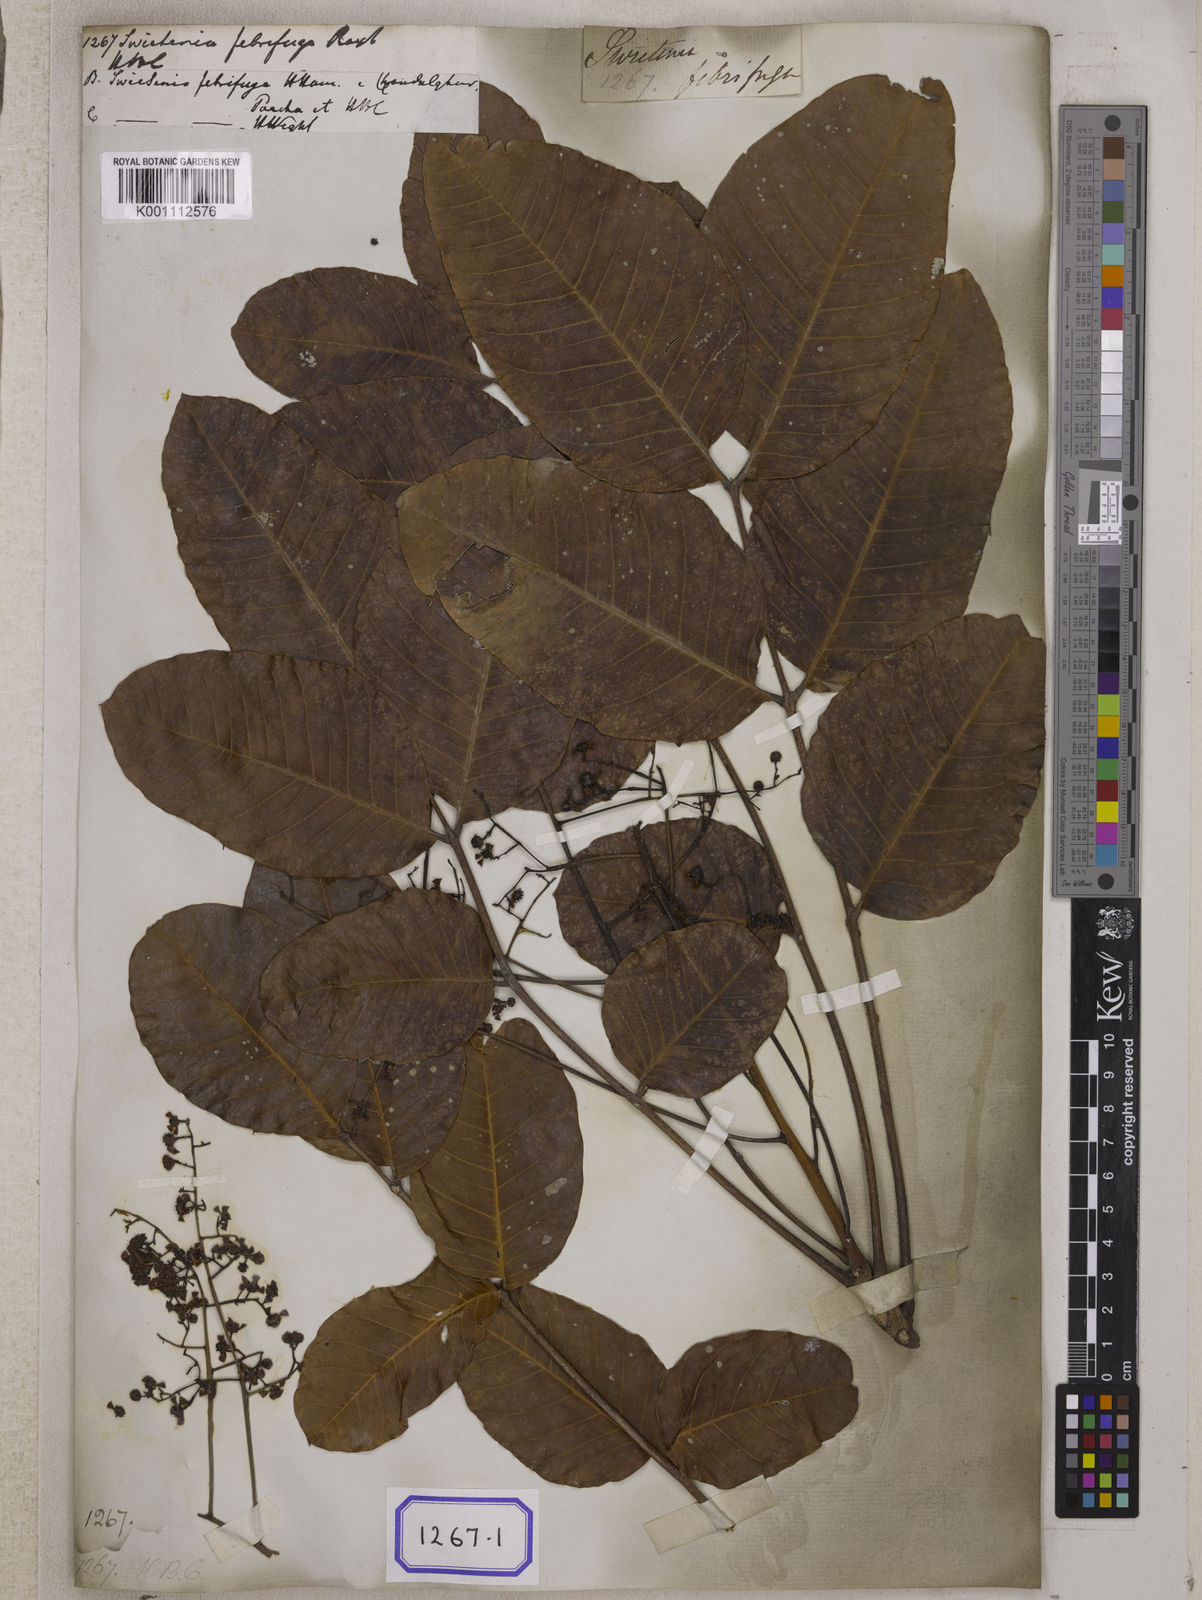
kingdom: Plantae
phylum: Tracheophyta
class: Magnoliopsida
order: Sapindales
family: Meliaceae
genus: Soymida
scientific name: Soymida febrifuga
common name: Indian-redwood
